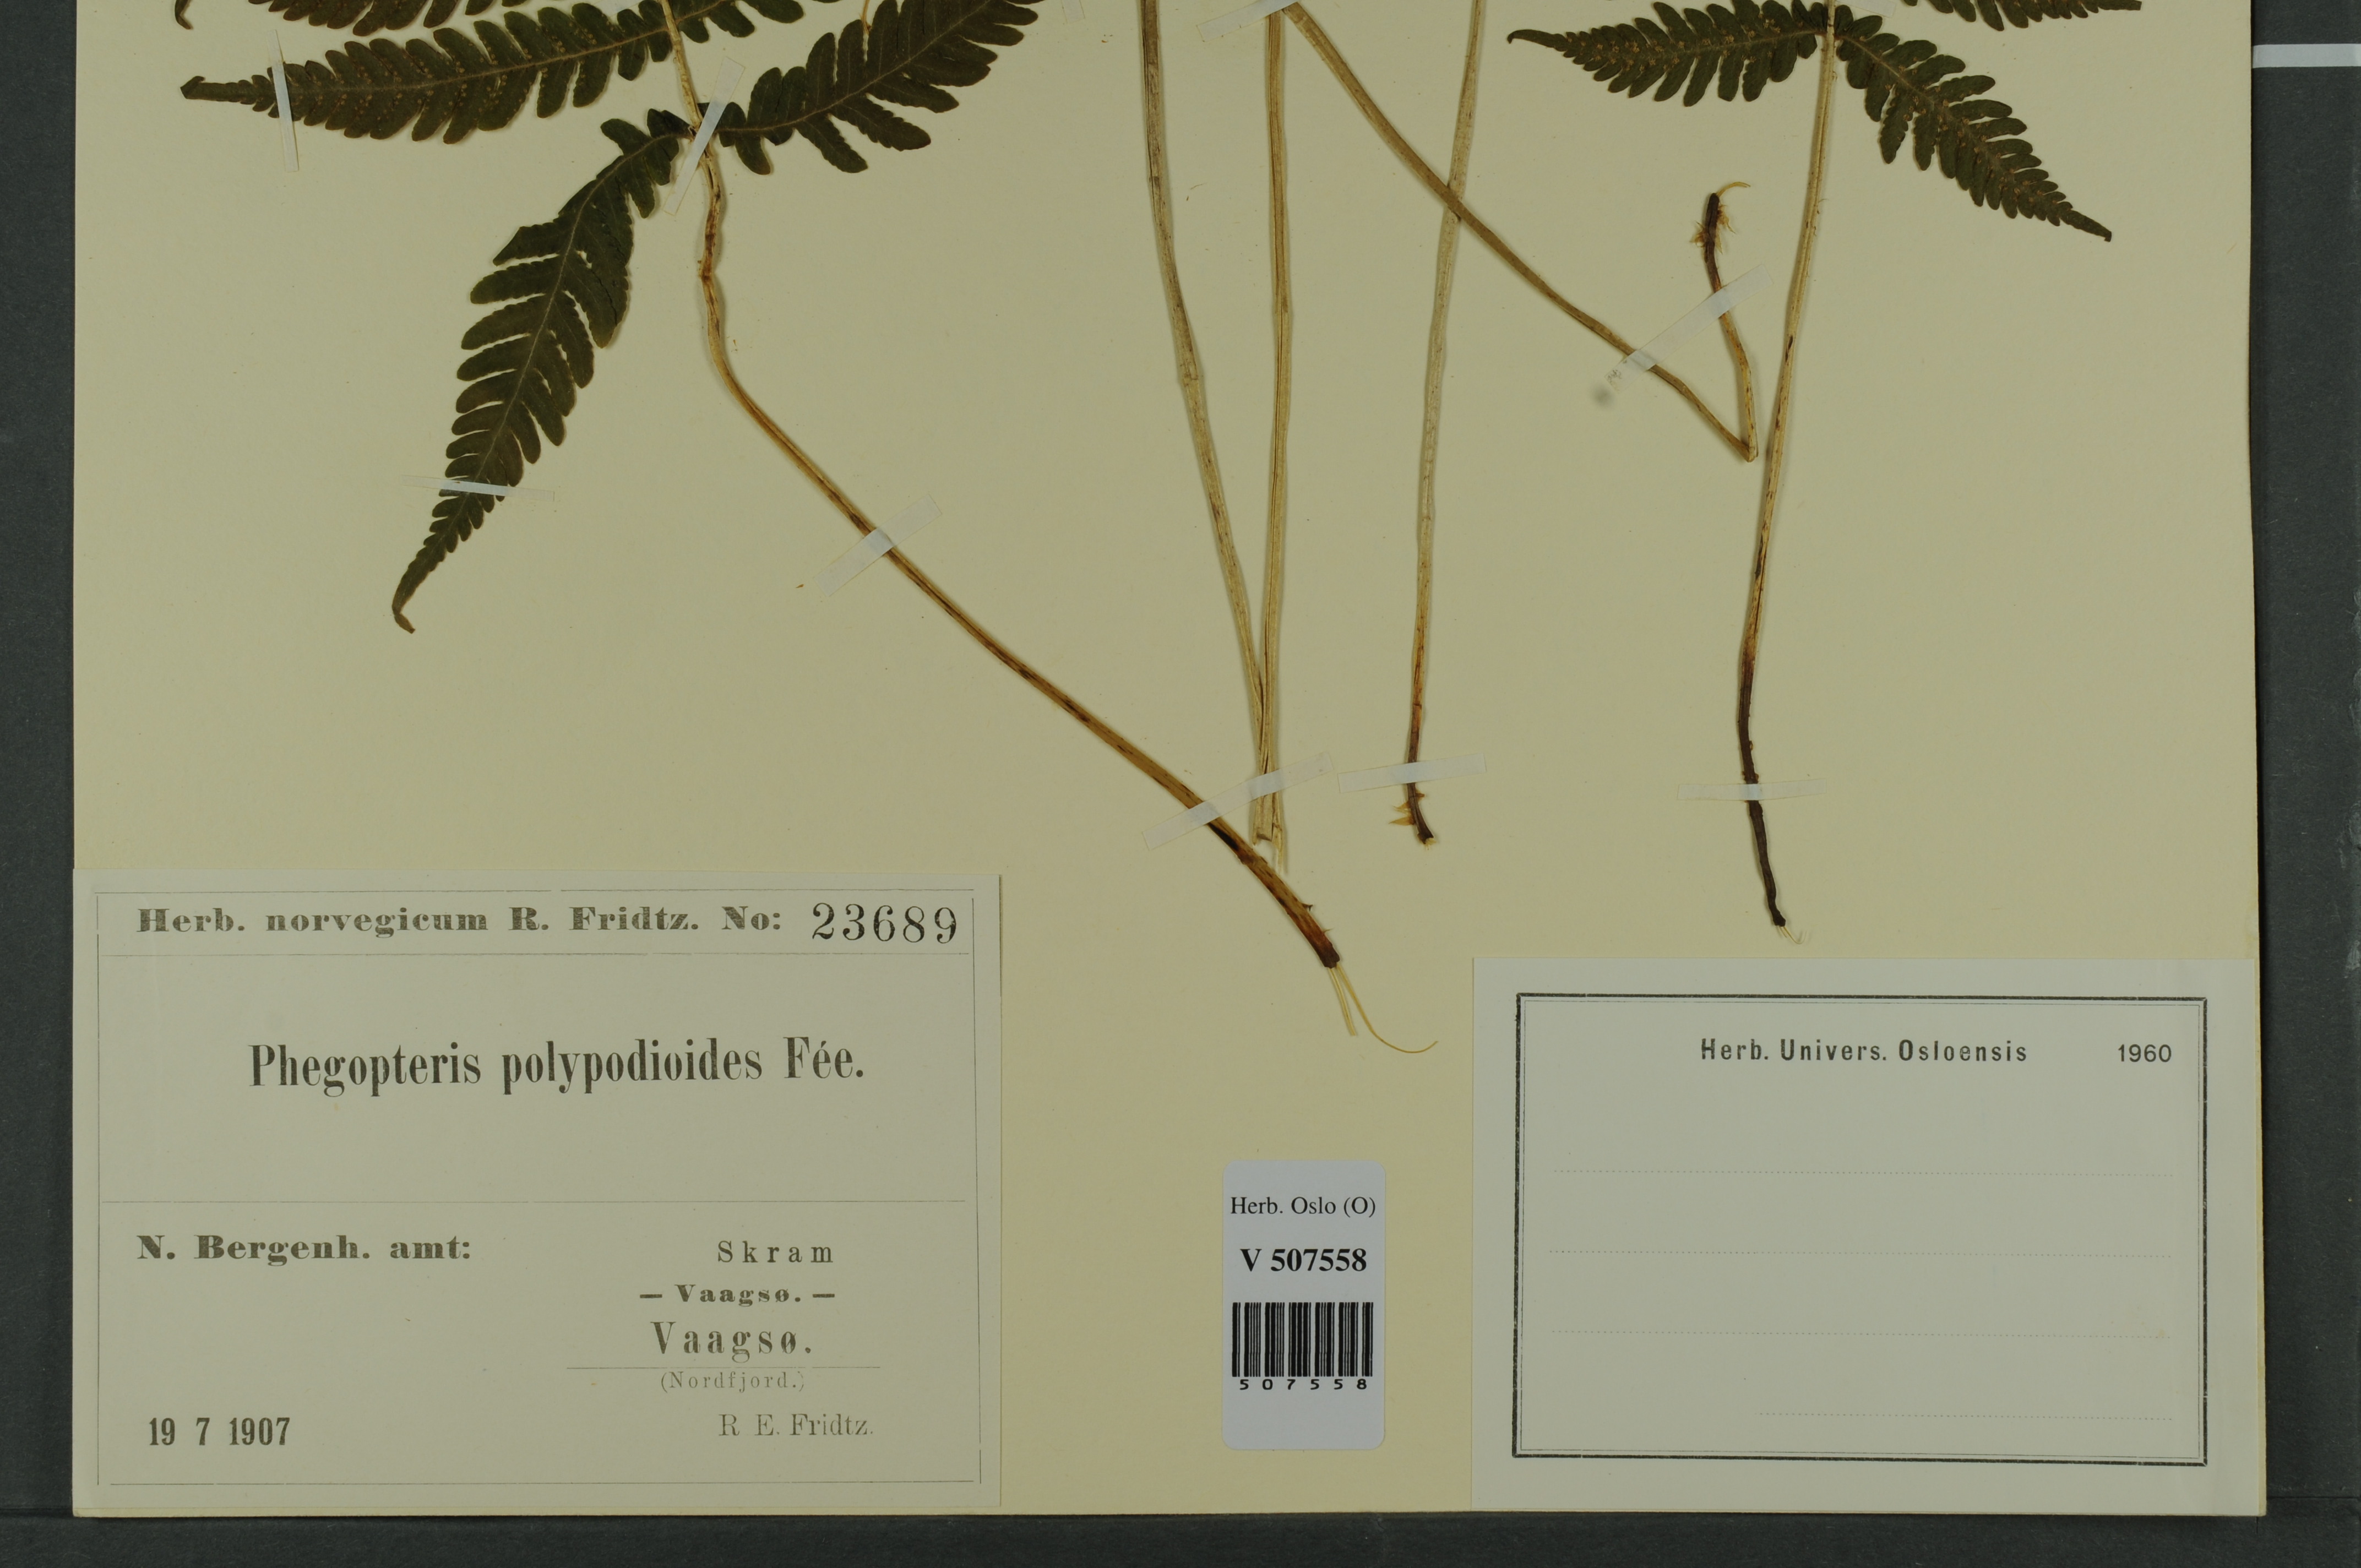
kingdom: Plantae
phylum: Tracheophyta
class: Polypodiopsida
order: Polypodiales
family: Thelypteridaceae
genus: Phegopteris
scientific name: Phegopteris connectilis
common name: Beech fern
